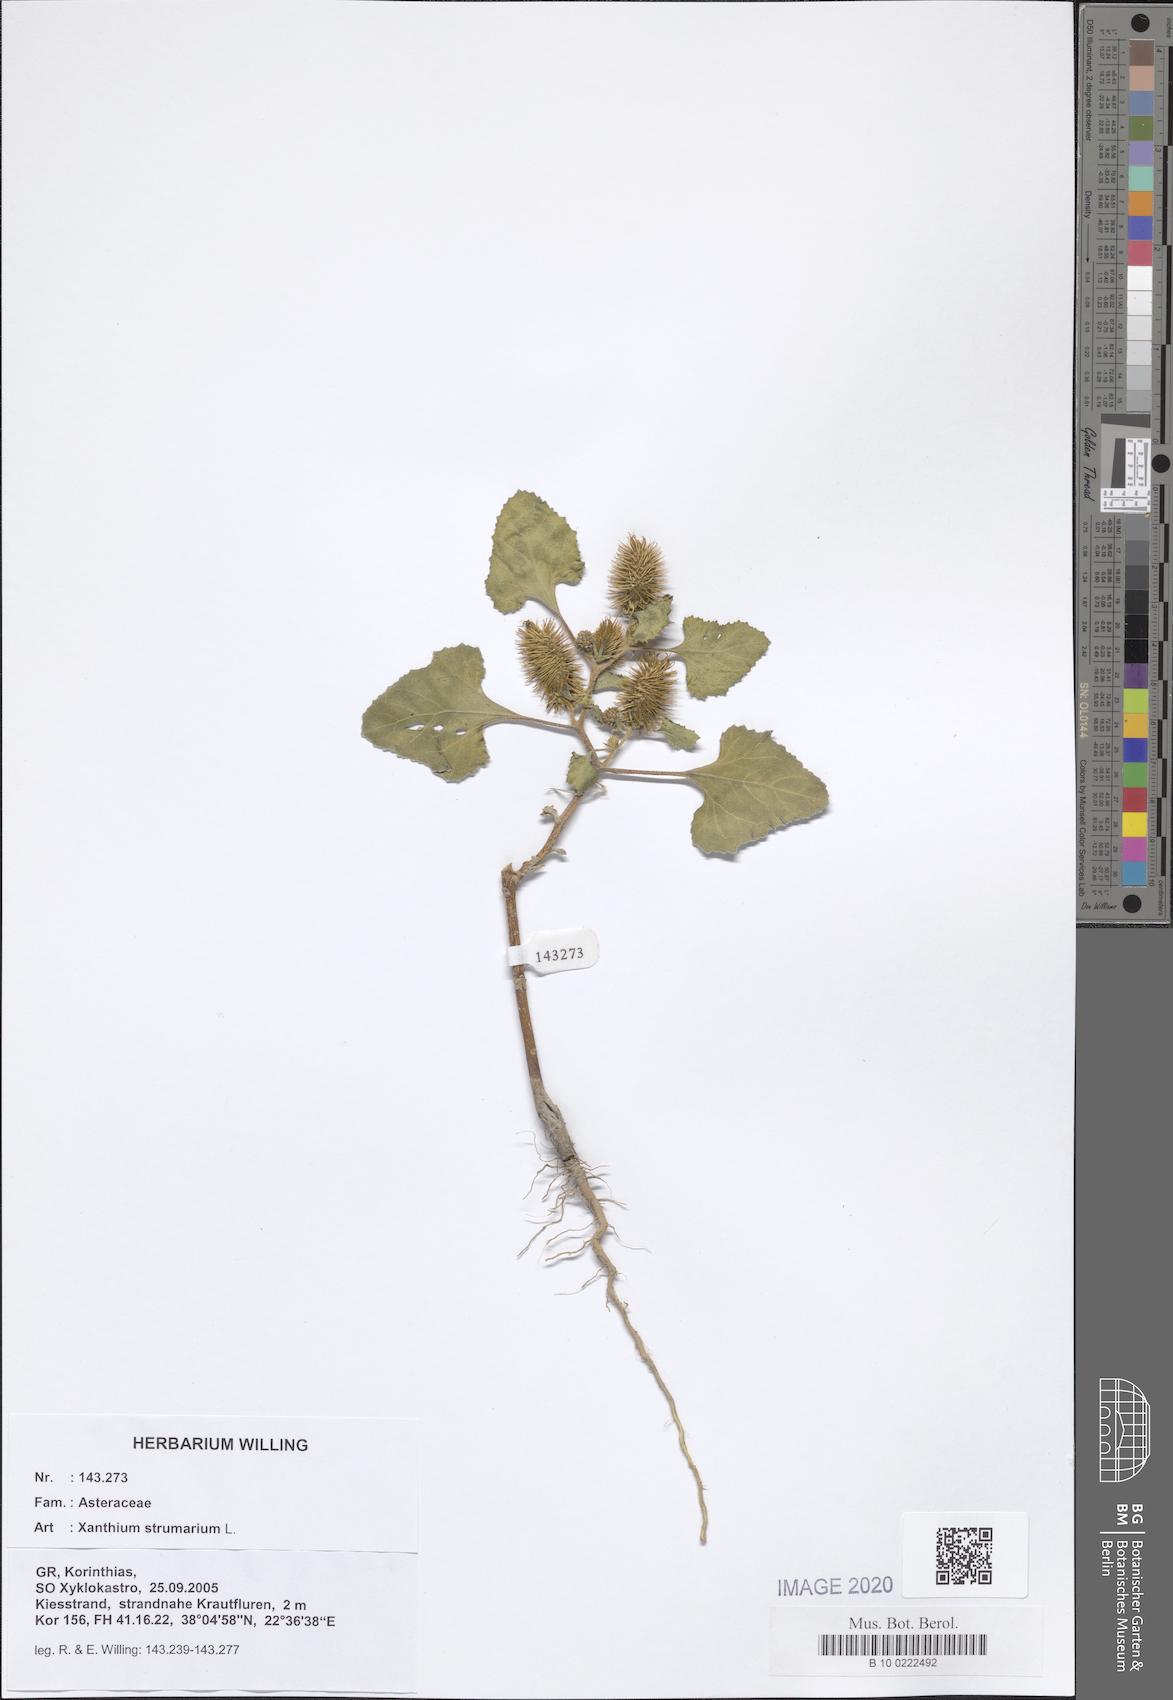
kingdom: Plantae
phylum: Tracheophyta
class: Magnoliopsida
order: Asterales
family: Asteraceae
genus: Xanthium
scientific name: Xanthium strumarium
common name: Rough cocklebur
